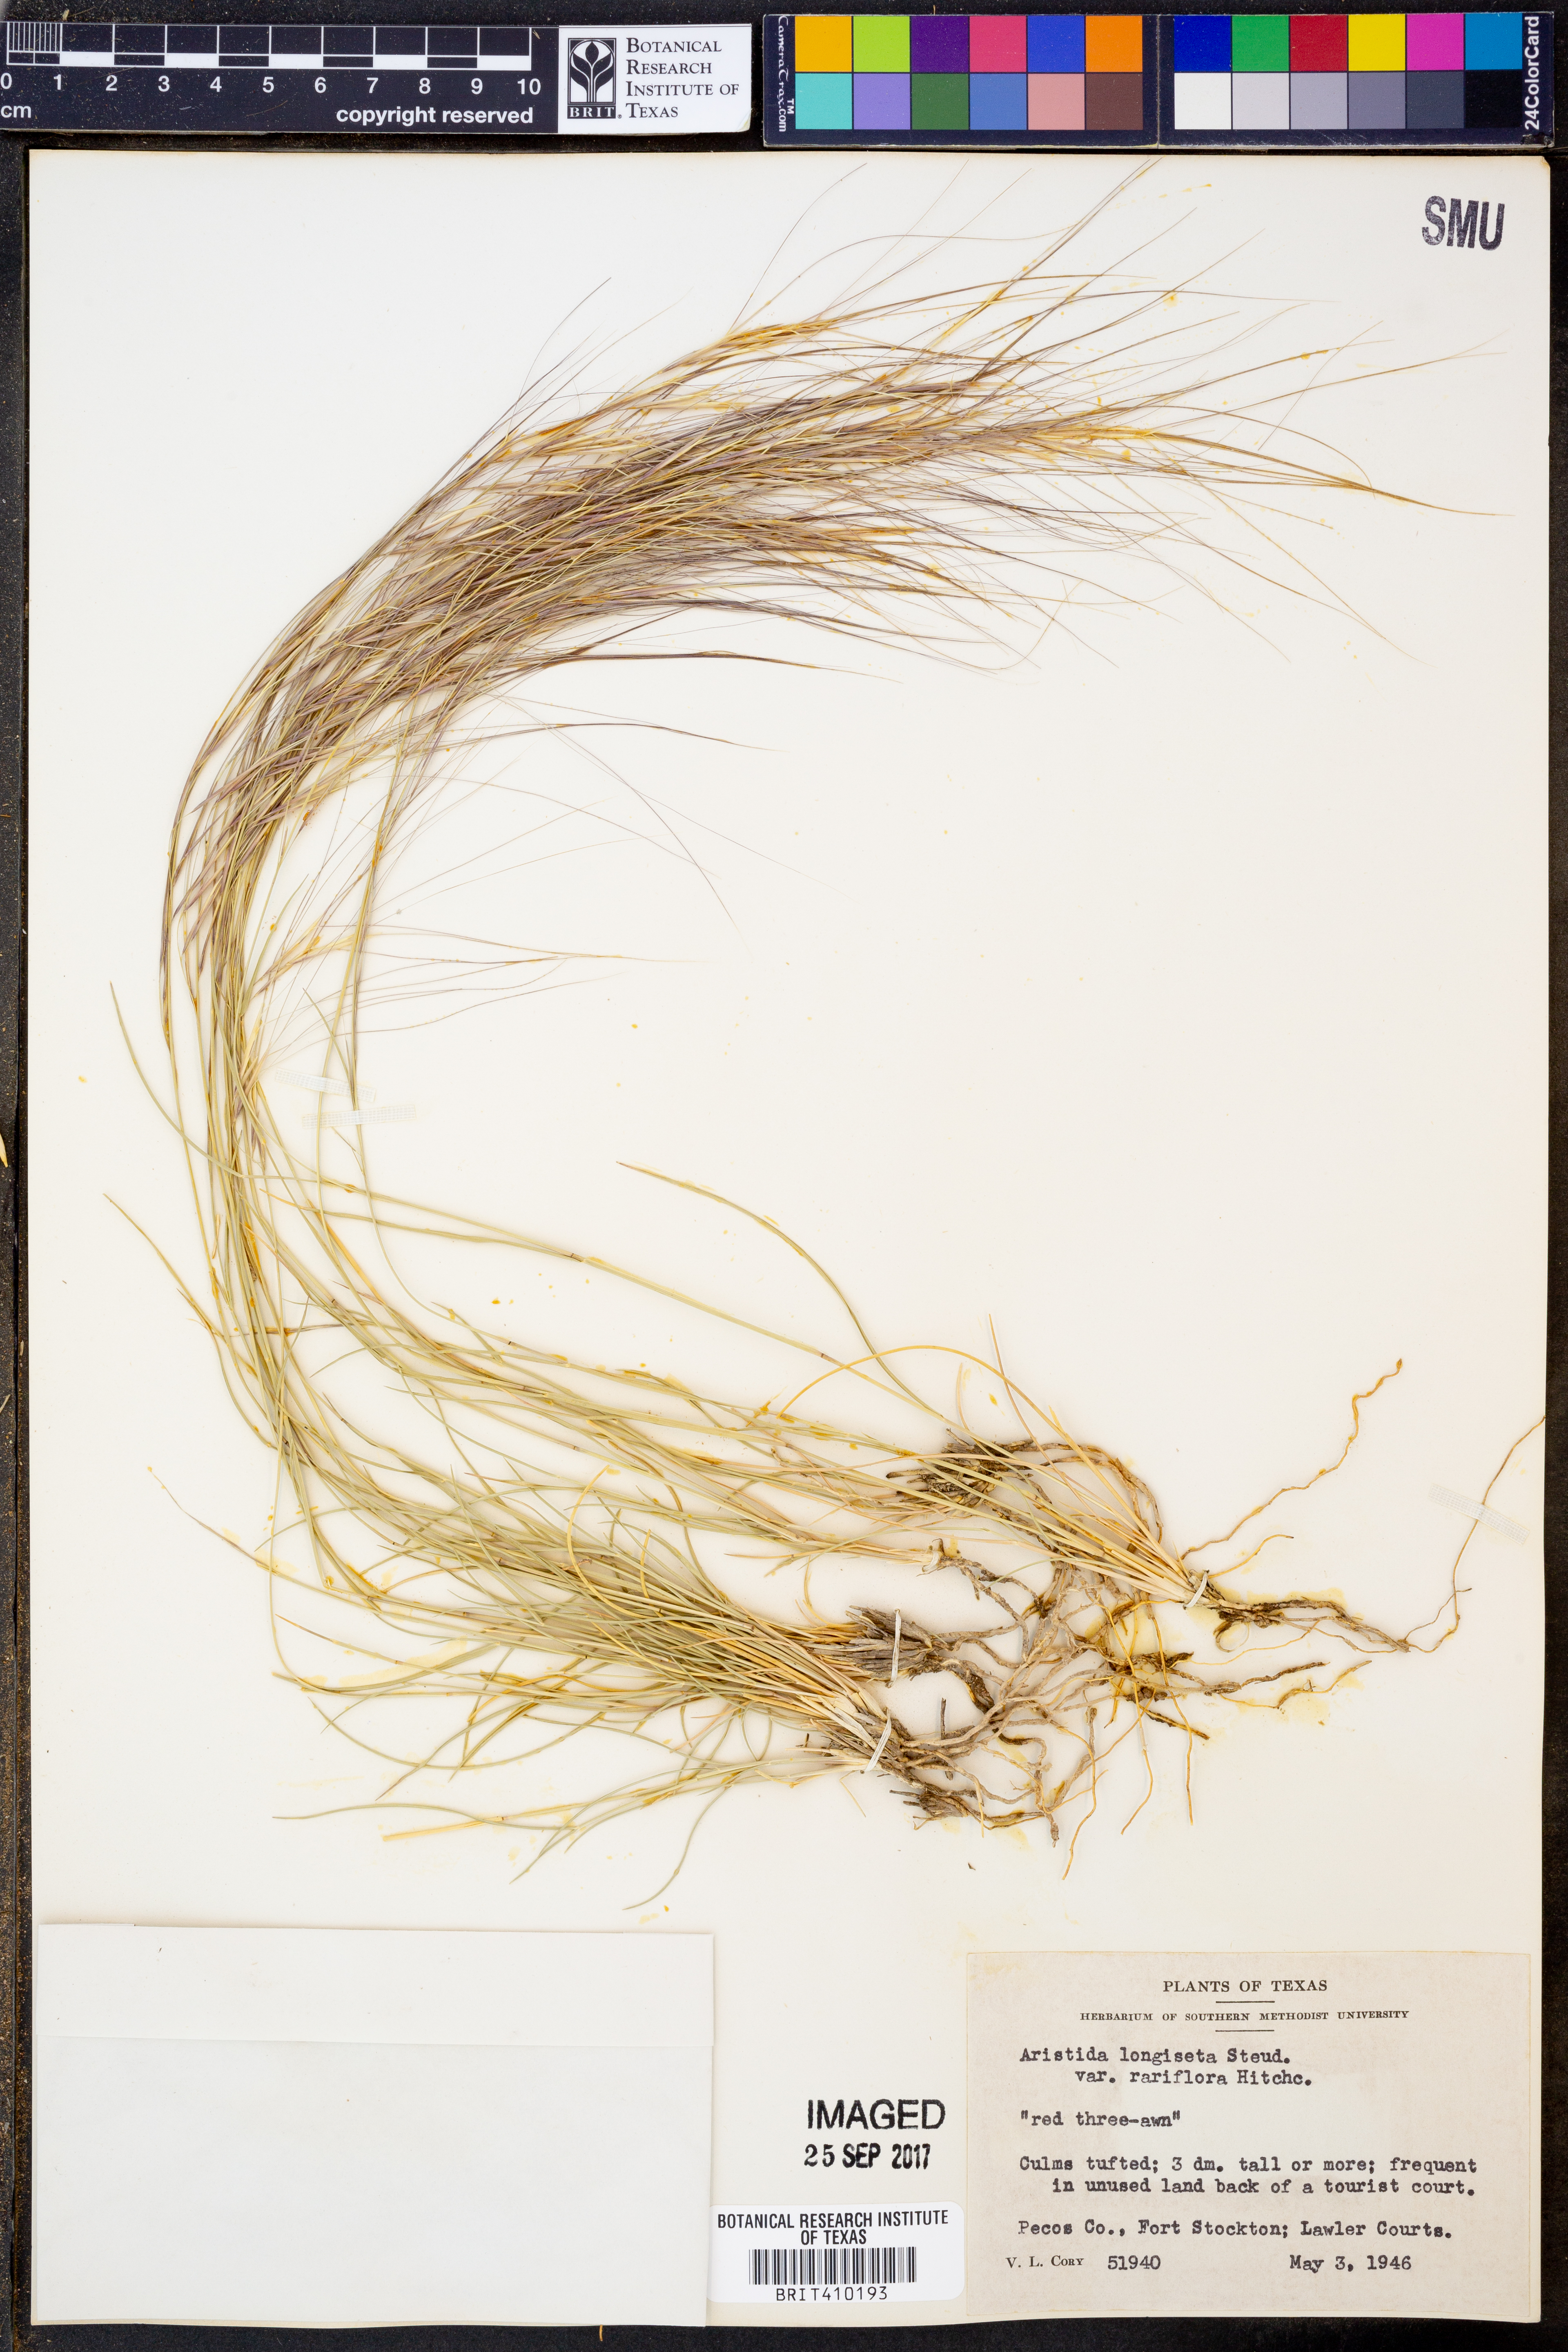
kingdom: Plantae
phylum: Tracheophyta
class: Liliopsida
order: Poales
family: Poaceae
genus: Aristida
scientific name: Aristida longiseta
